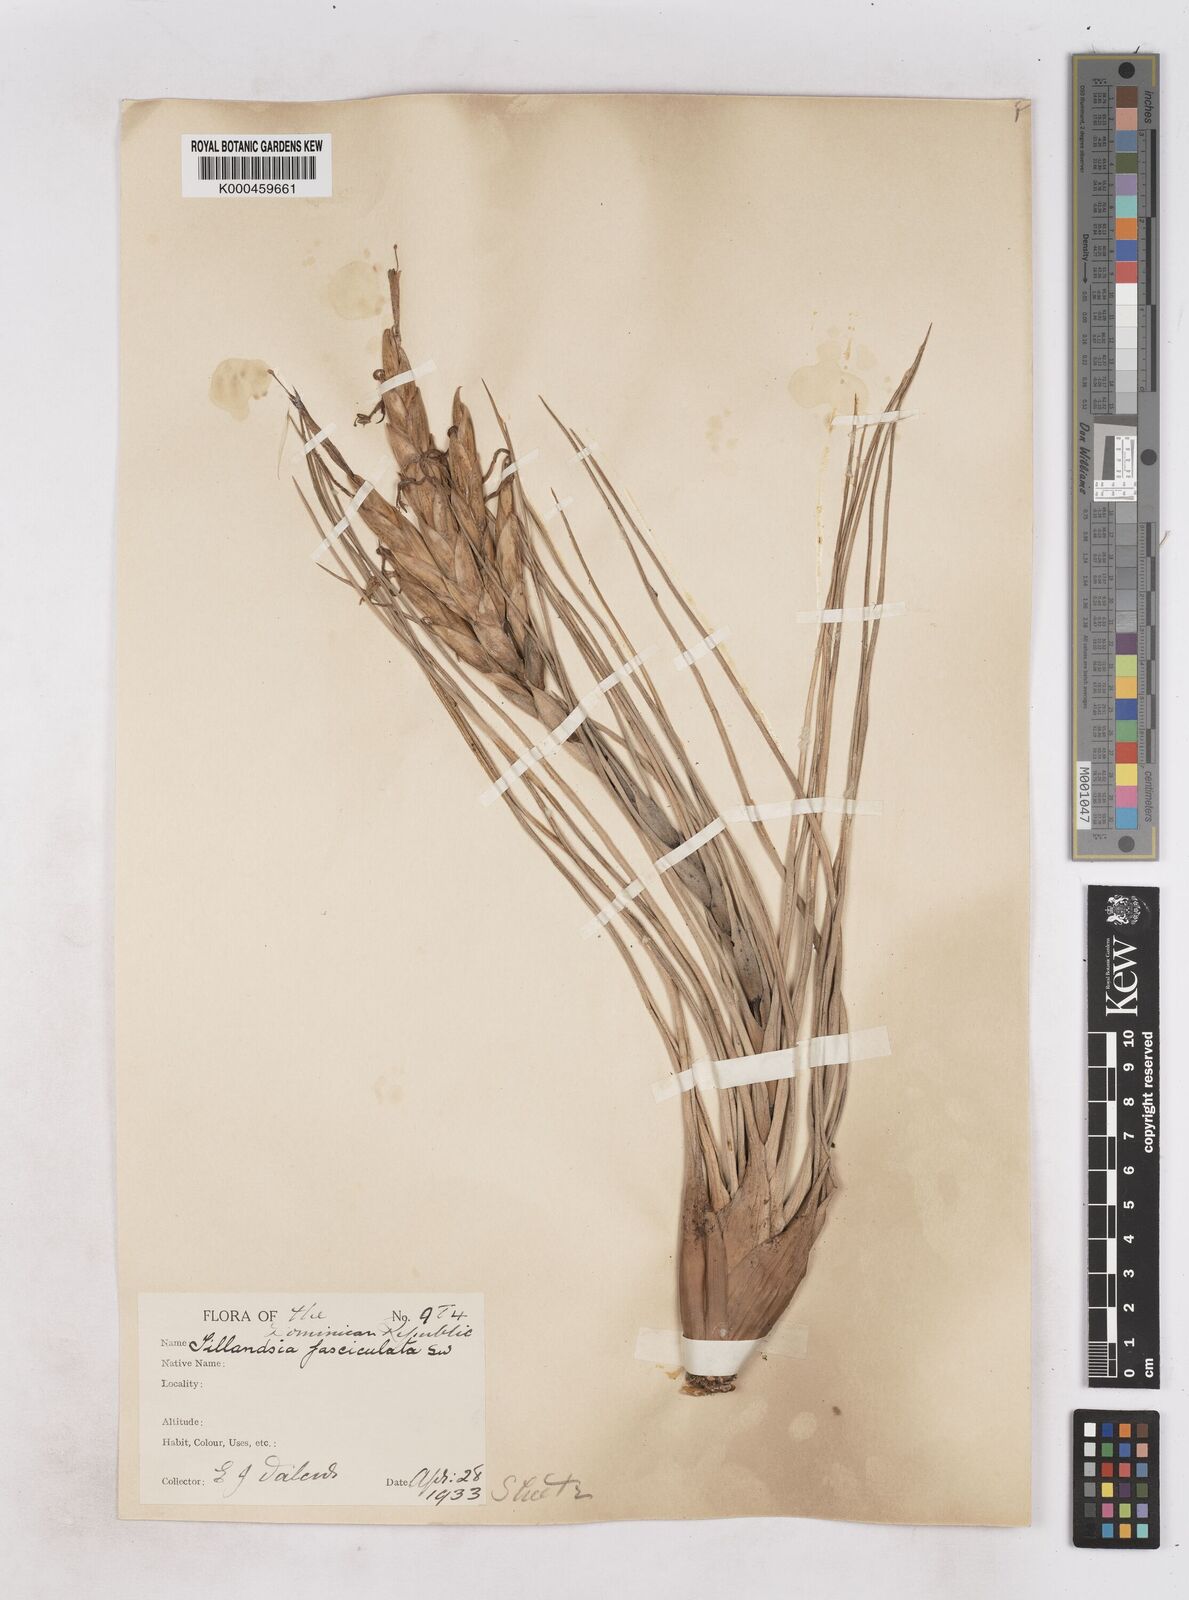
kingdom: Plantae
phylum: Tracheophyta
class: Liliopsida
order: Poales
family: Bromeliaceae
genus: Tillandsia
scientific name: Tillandsia fasciculata
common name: Giant airplant
